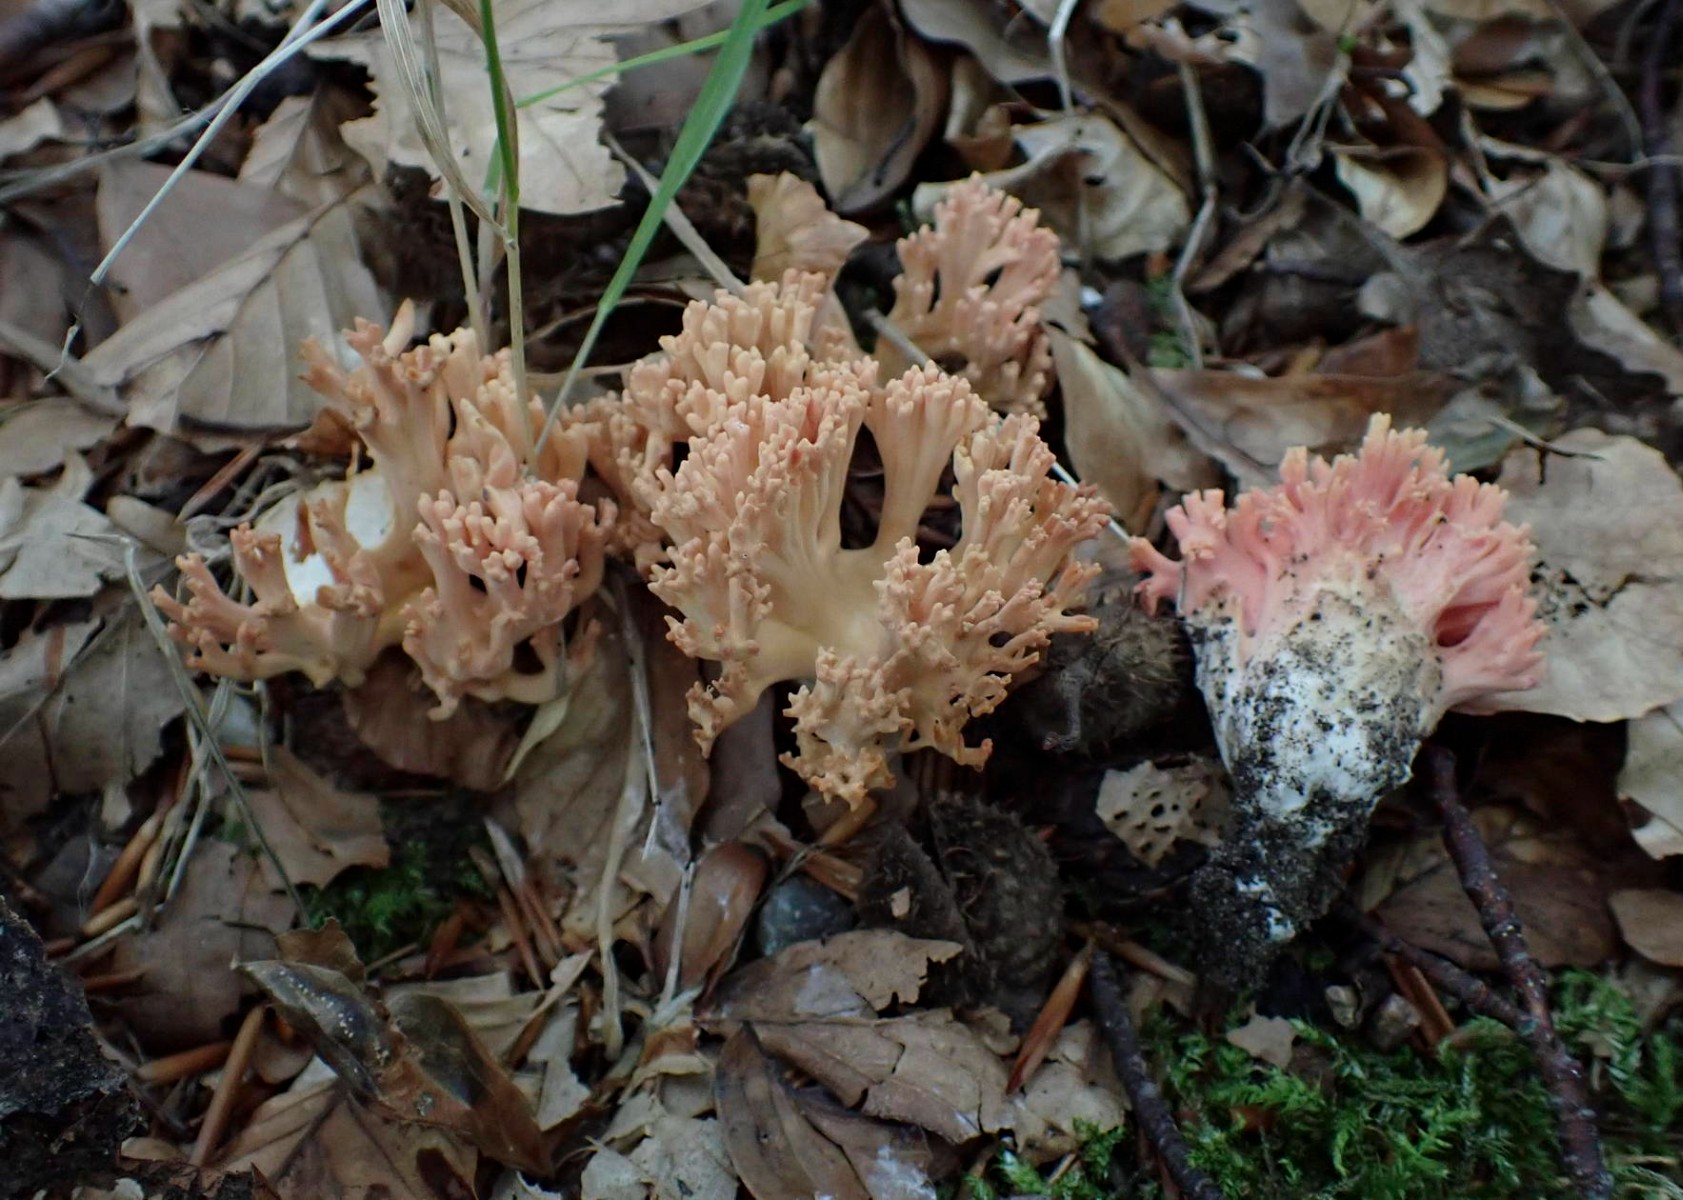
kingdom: Fungi
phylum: Basidiomycota
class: Agaricomycetes
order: Gomphales
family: Gomphaceae
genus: Ramaria
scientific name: Ramaria fagetorum
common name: abrikos-koralsvamp
